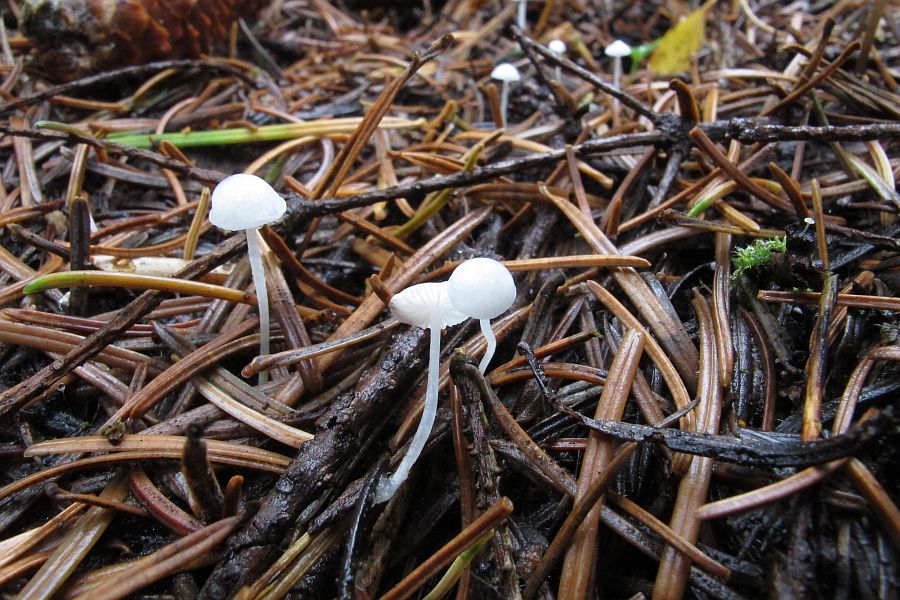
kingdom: Fungi
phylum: Basidiomycota
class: Agaricomycetes
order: Agaricales
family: Mycenaceae
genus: Hemimycena
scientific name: Hemimycena lactea
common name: mælkehvid huesvamp
